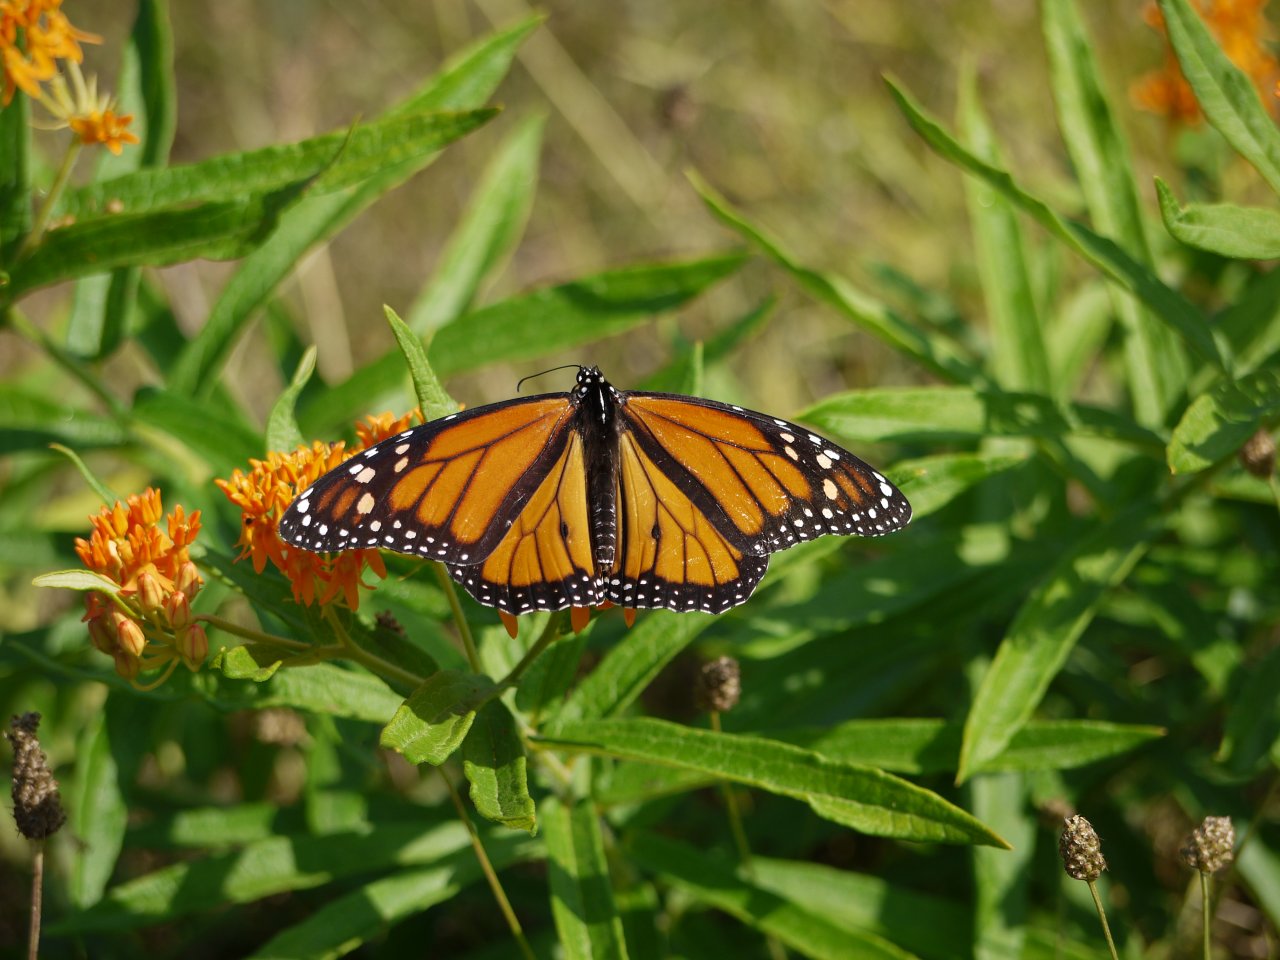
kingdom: Animalia
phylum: Arthropoda
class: Insecta
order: Lepidoptera
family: Nymphalidae
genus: Danaus
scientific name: Danaus plexippus
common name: Monarch
